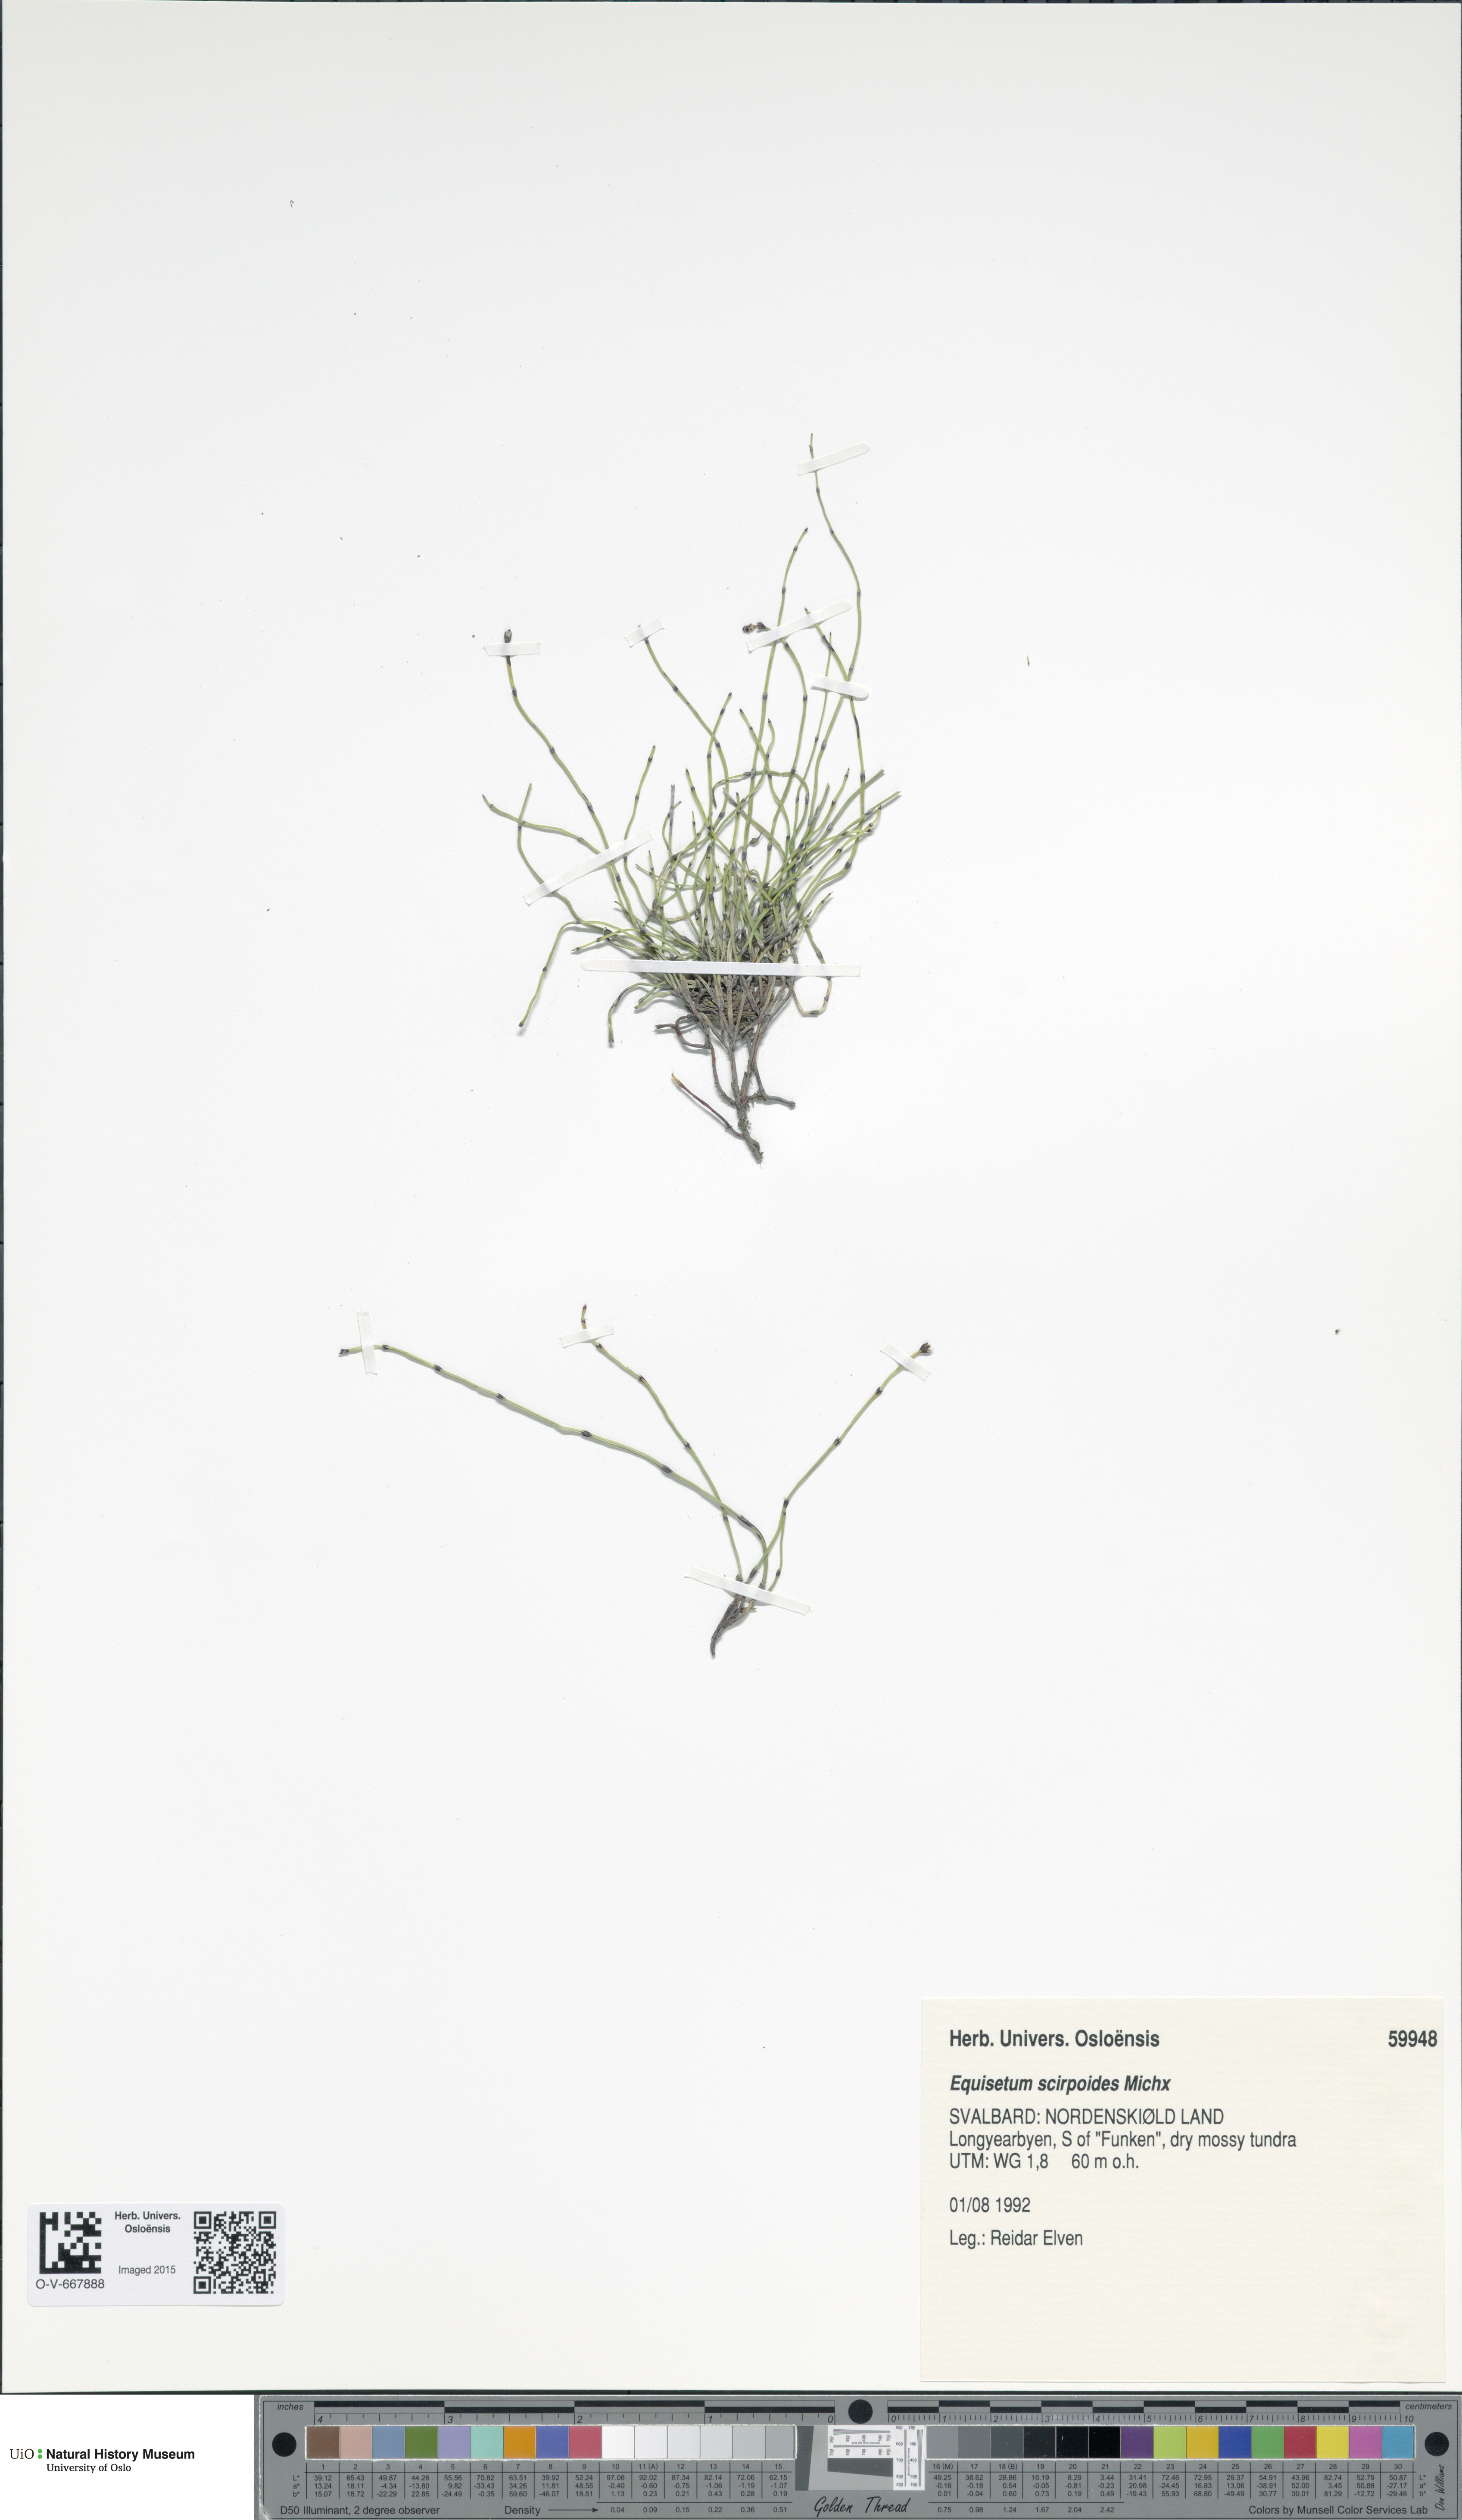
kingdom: Plantae
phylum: Tracheophyta
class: Polypodiopsida
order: Equisetales
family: Equisetaceae
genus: Equisetum
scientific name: Equisetum scirpoides
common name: Delicate horsetail
